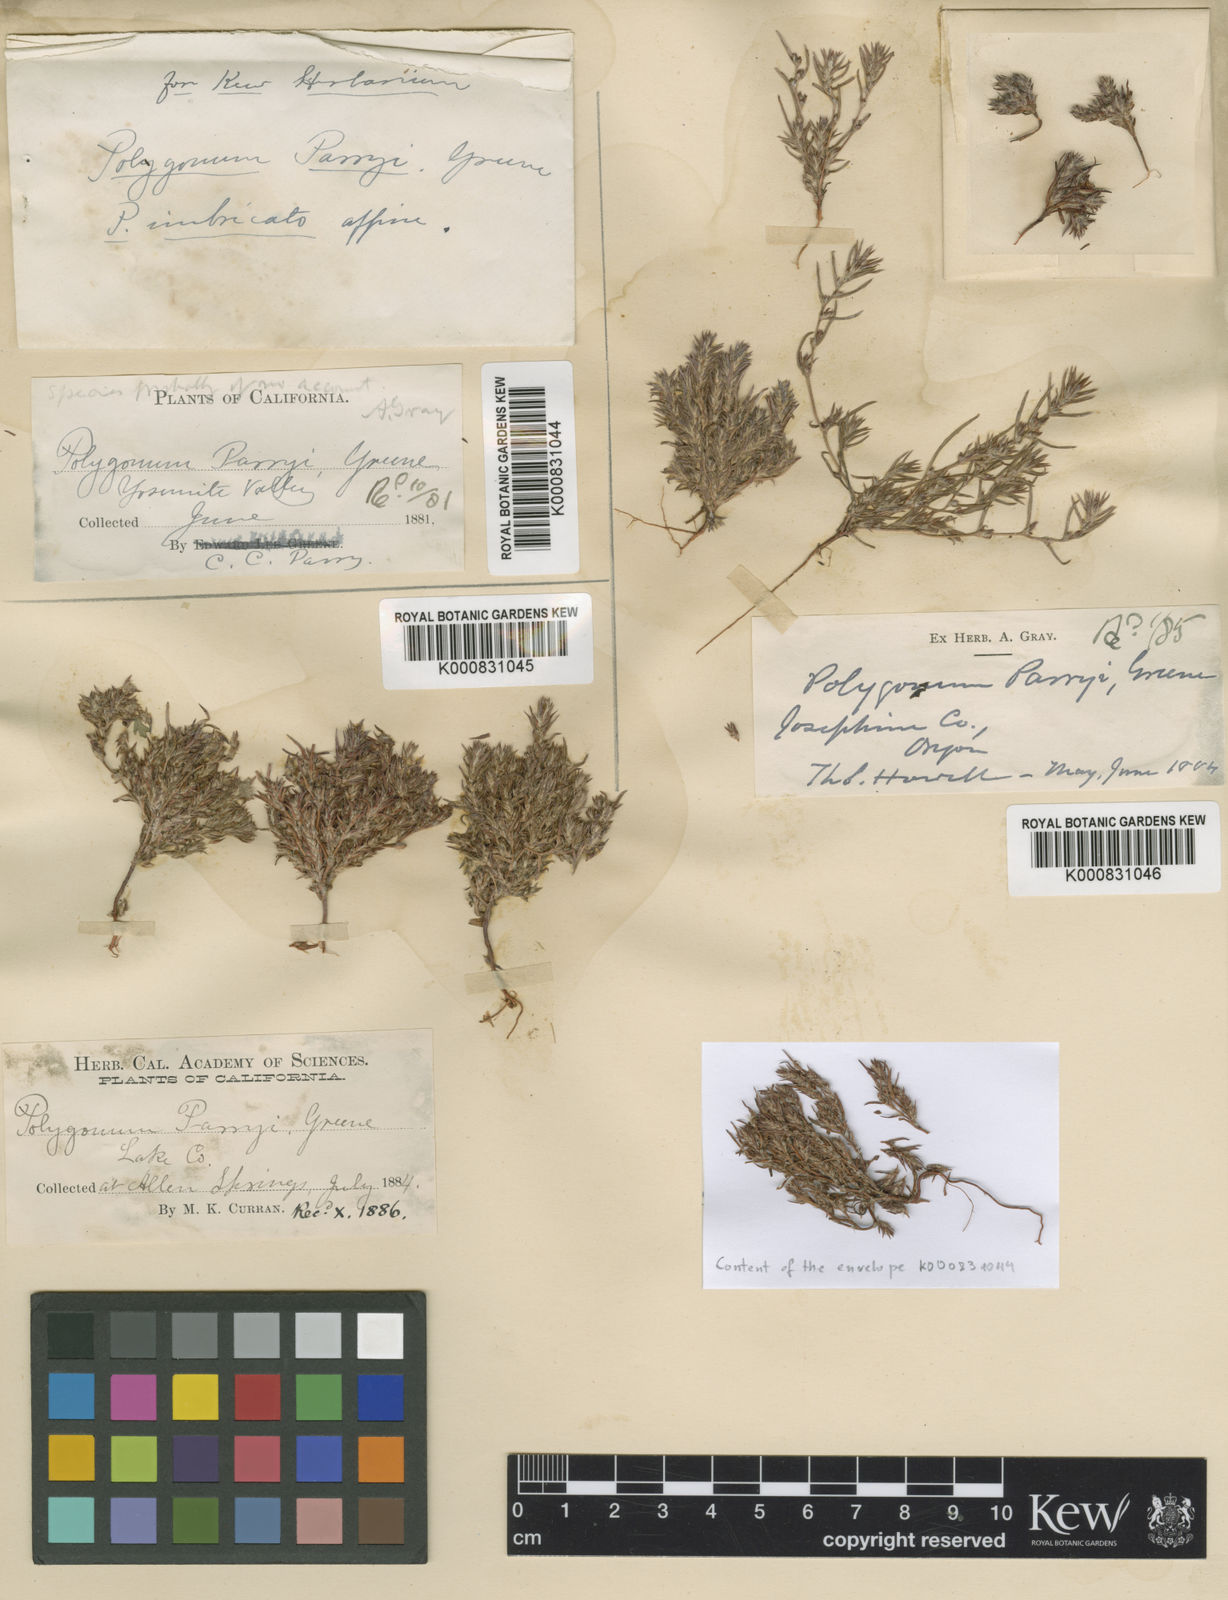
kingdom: Plantae
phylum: Tracheophyta
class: Magnoliopsida
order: Caryophyllales
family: Polygonaceae
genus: Polygonum
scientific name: Polygonum parryi
